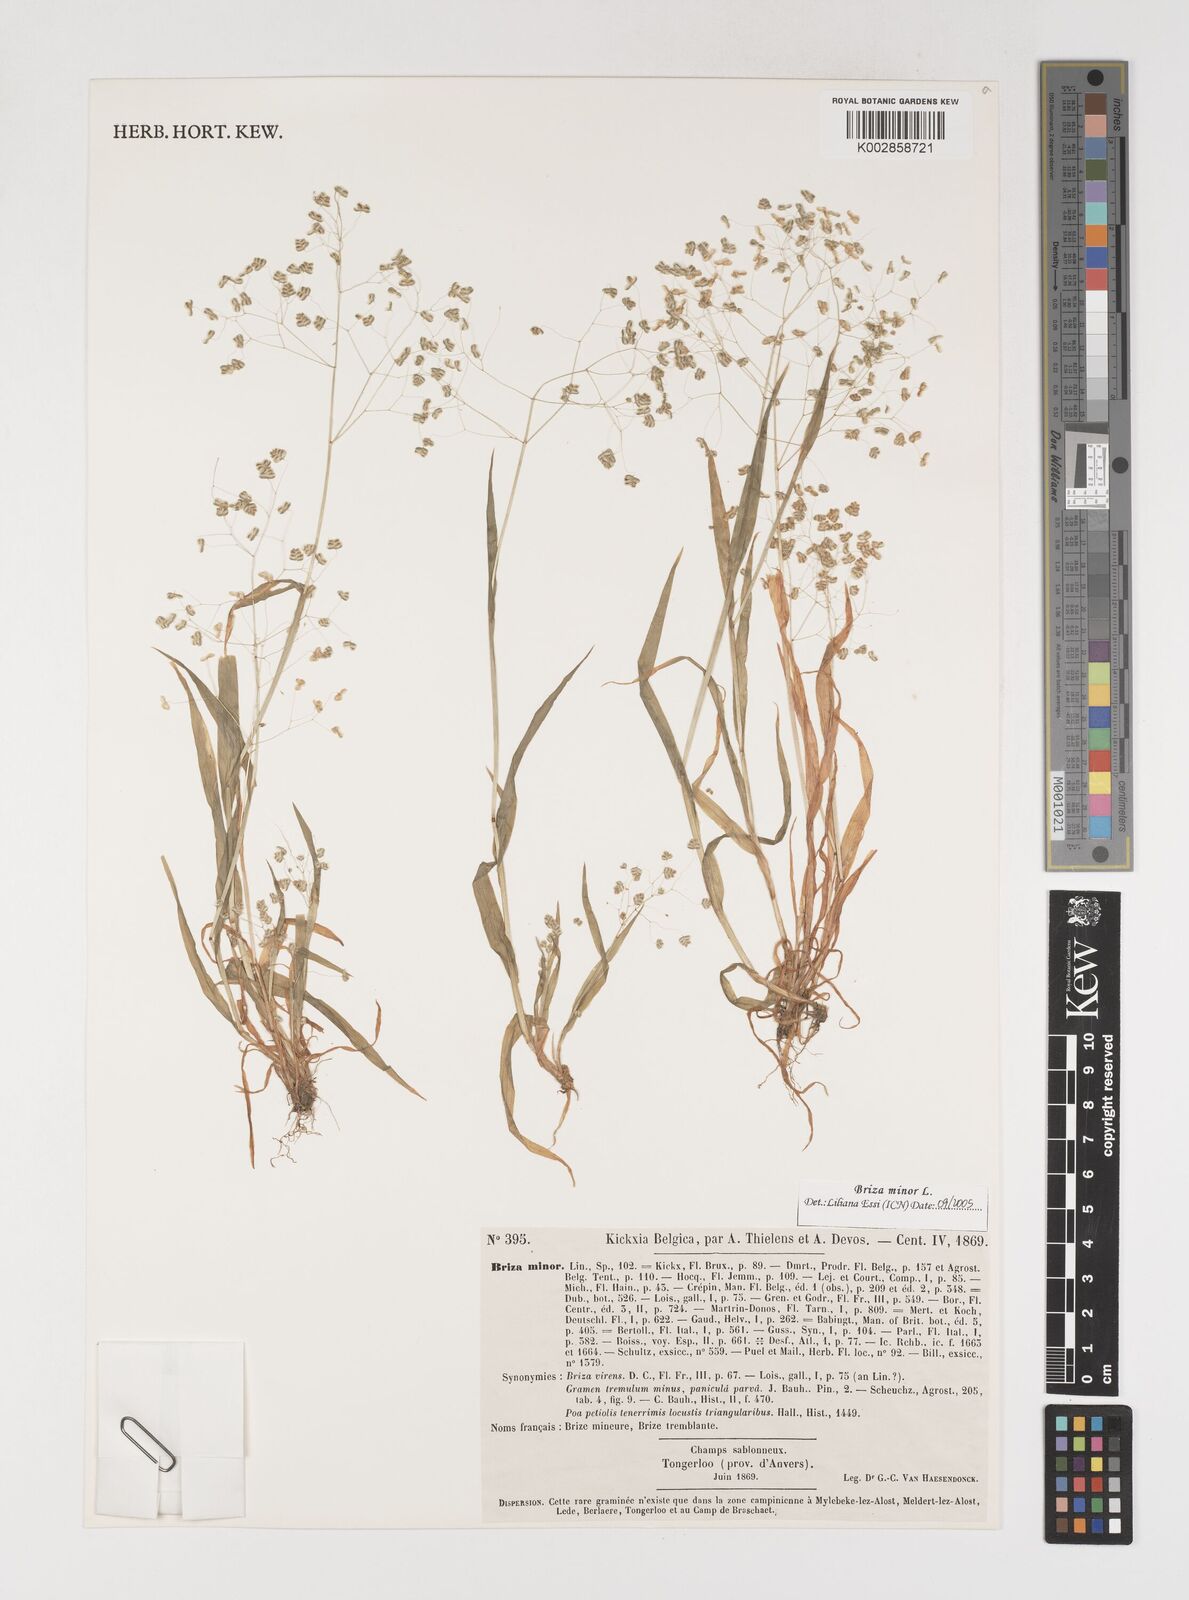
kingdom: Plantae
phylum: Tracheophyta
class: Liliopsida
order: Poales
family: Poaceae
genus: Briza
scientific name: Briza minor
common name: Lesser quaking-grass
